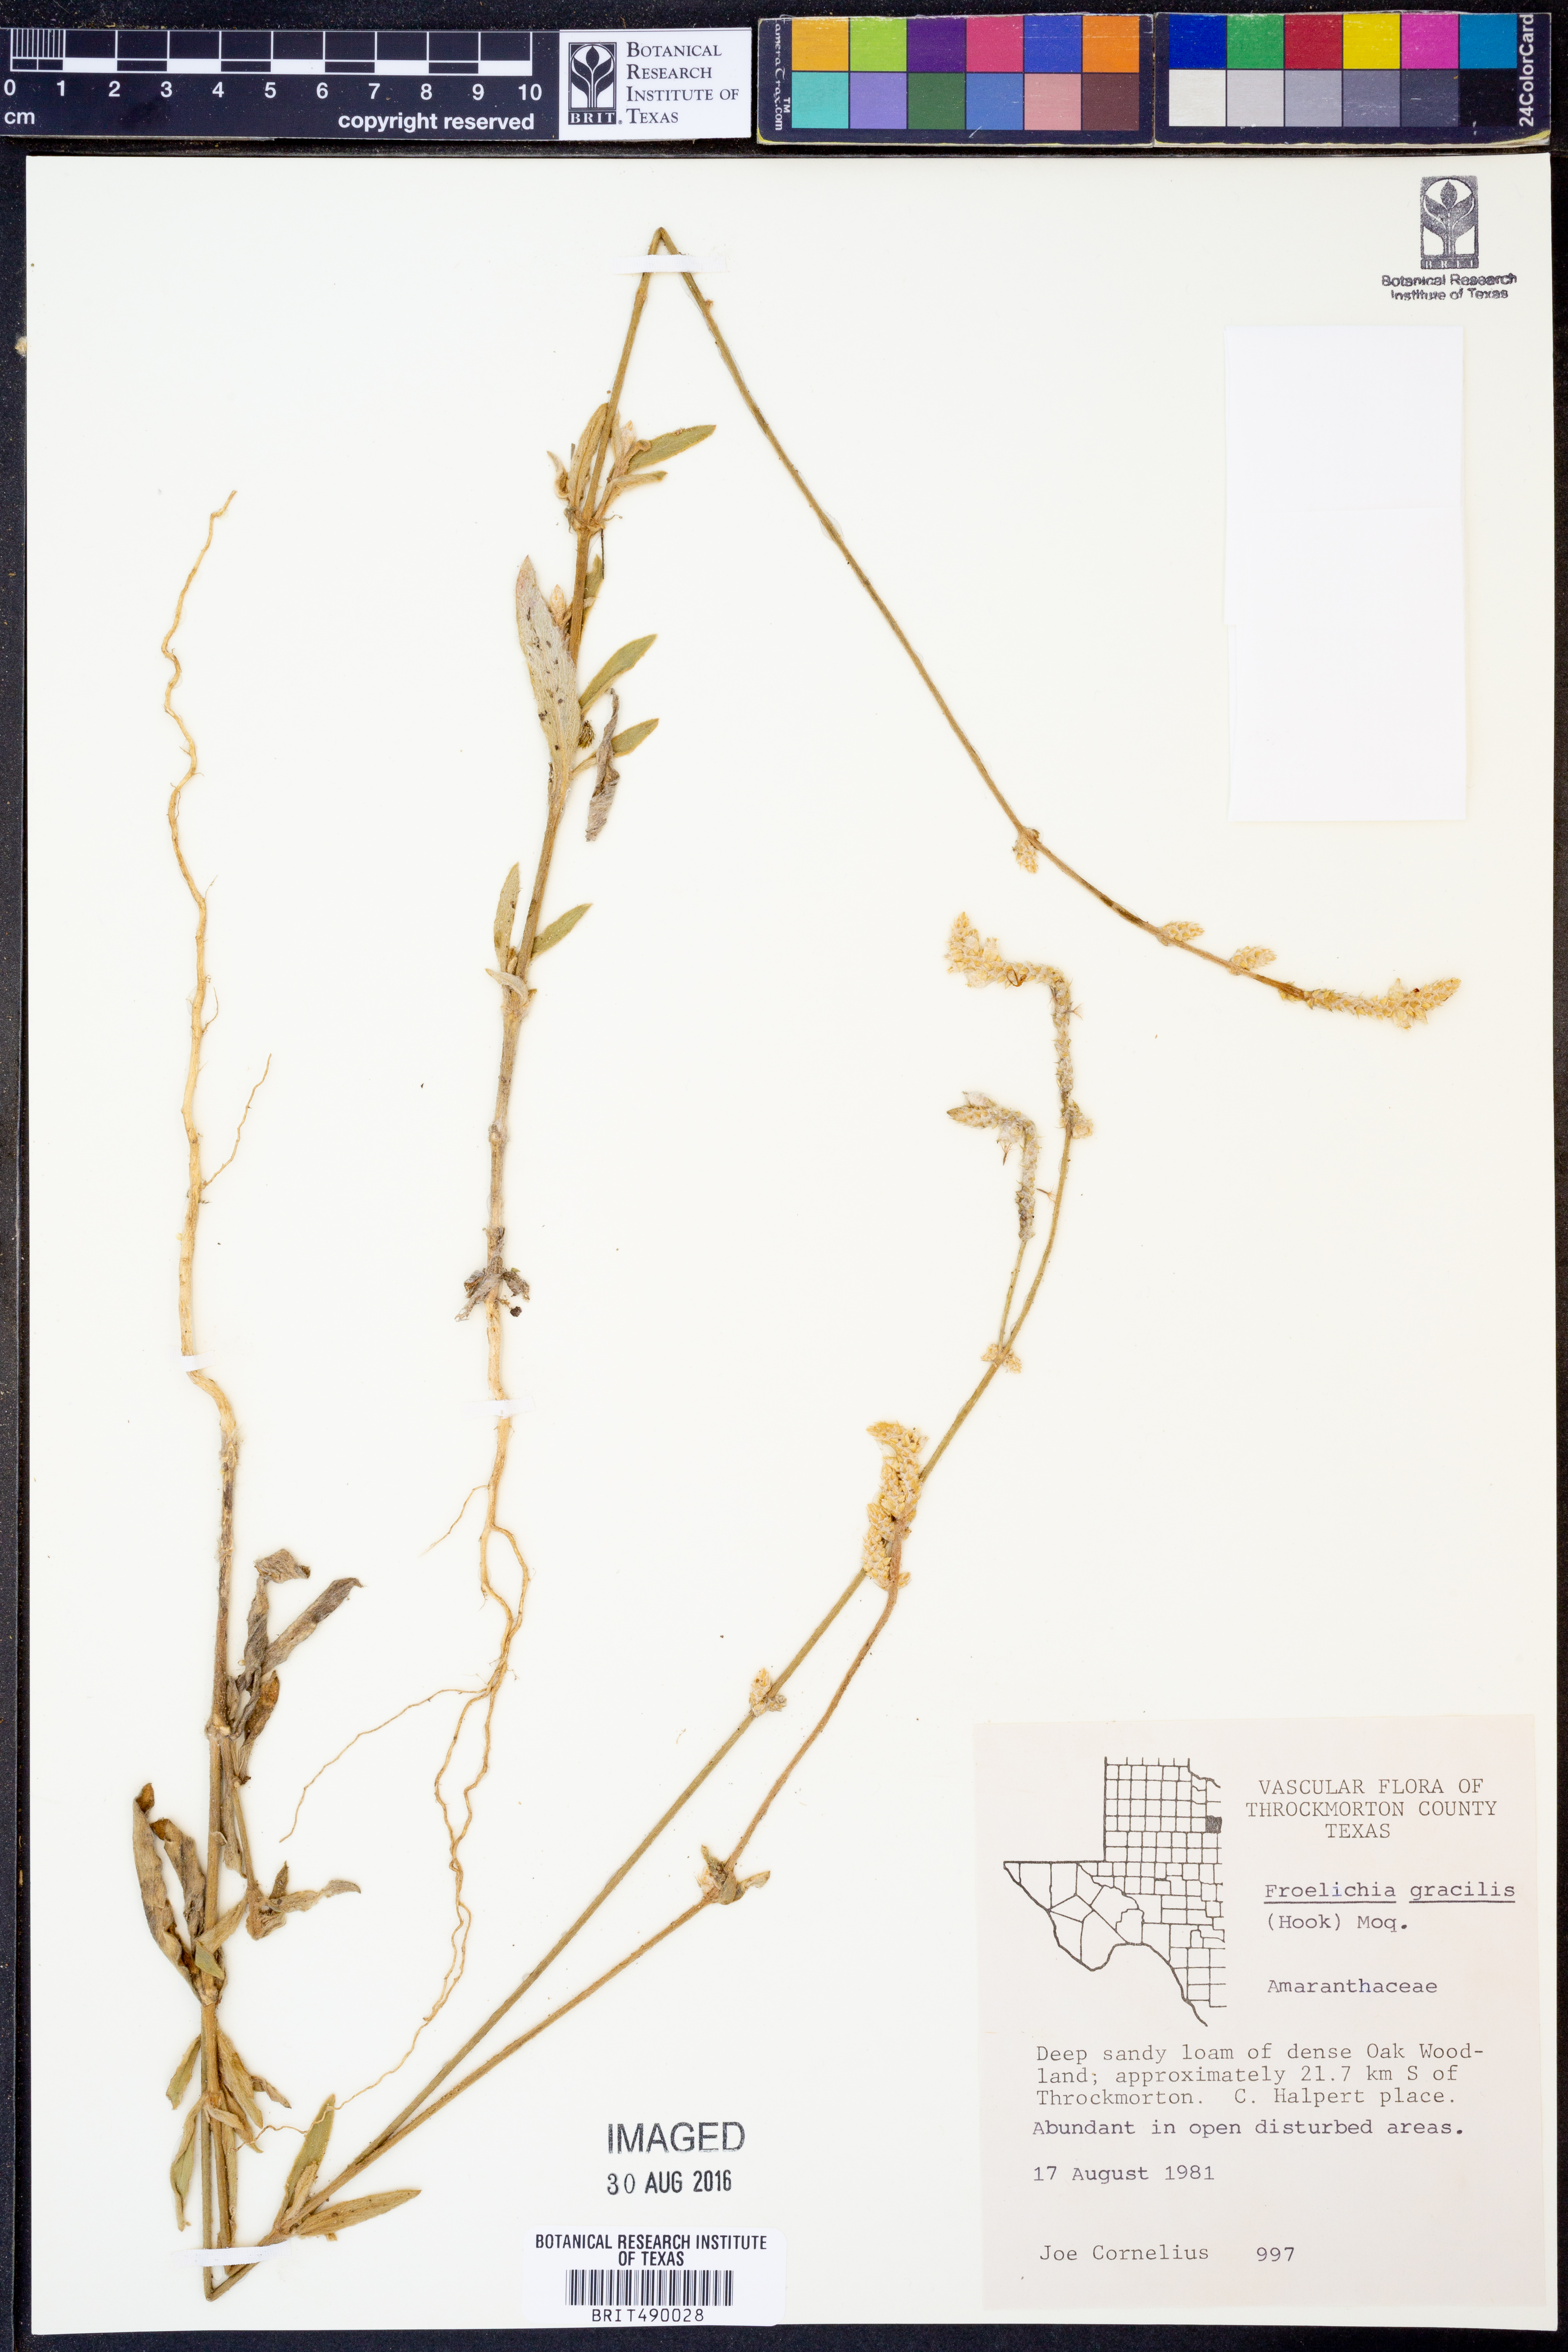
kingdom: Plantae
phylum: Tracheophyta
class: Magnoliopsida
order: Caryophyllales
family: Amaranthaceae
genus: Froelichia
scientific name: Froelichia gracilis
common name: Slender cottonweed
